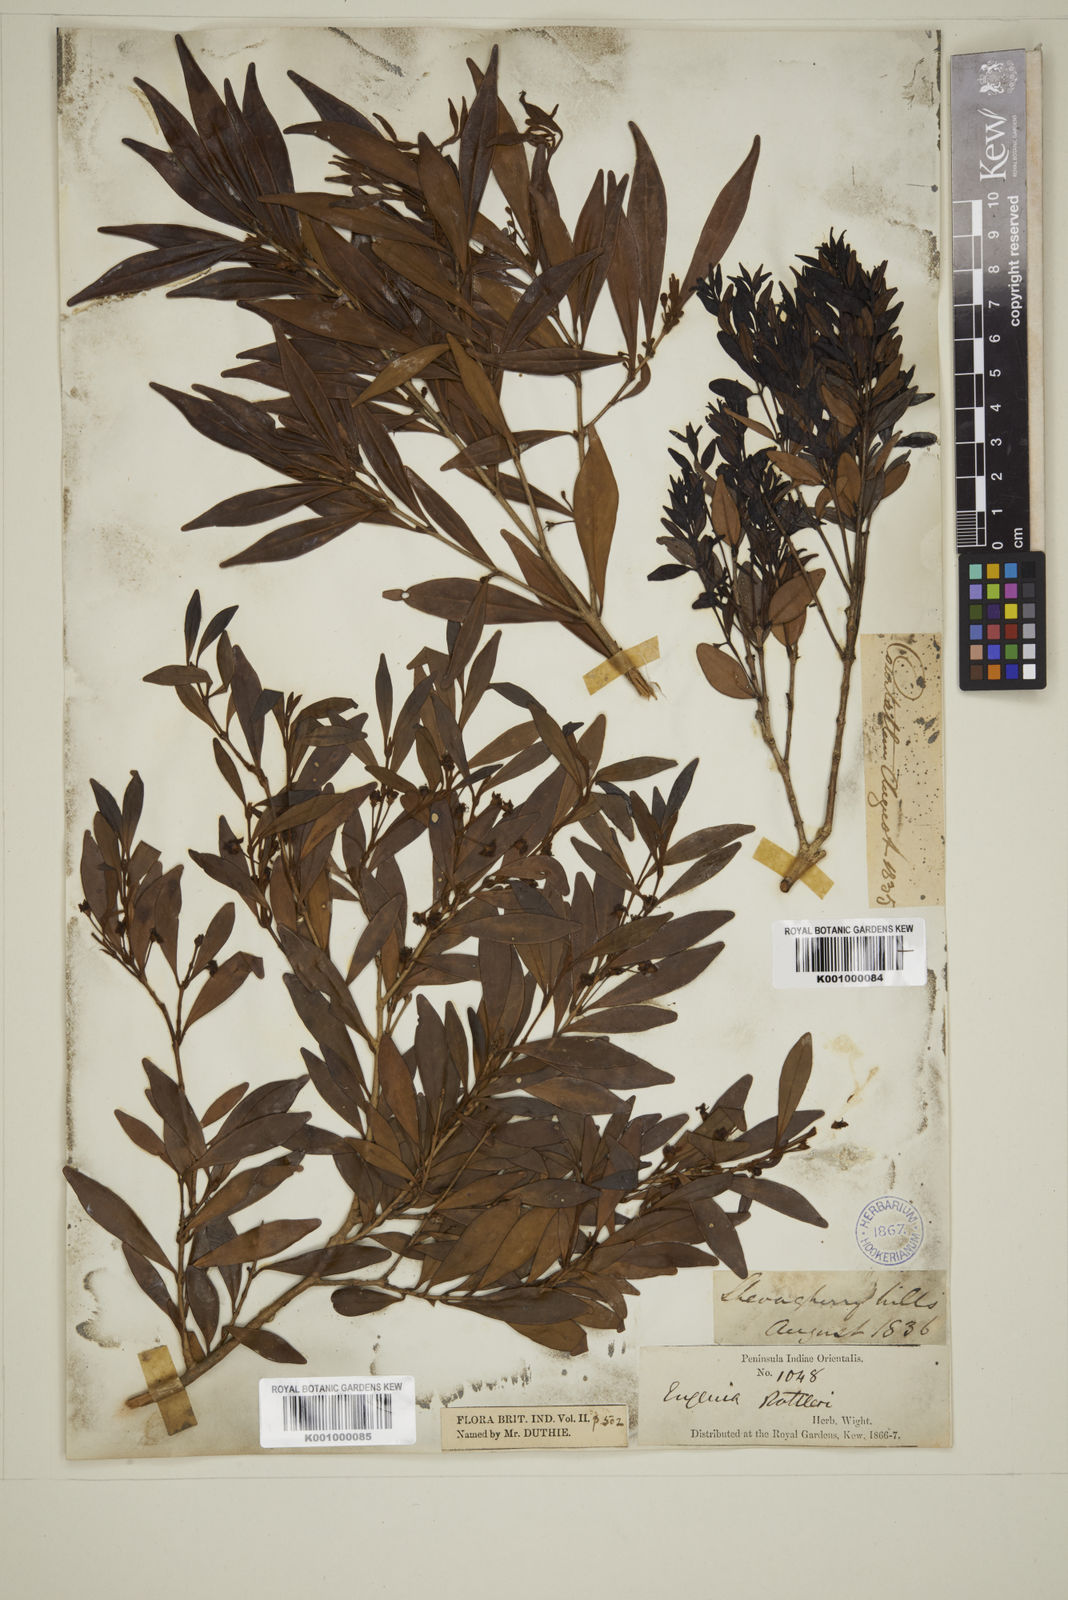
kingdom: Plantae
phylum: Tracheophyta
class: Magnoliopsida
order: Myrtales
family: Myrtaceae
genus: Eugenia
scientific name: Eugenia rottleriana
